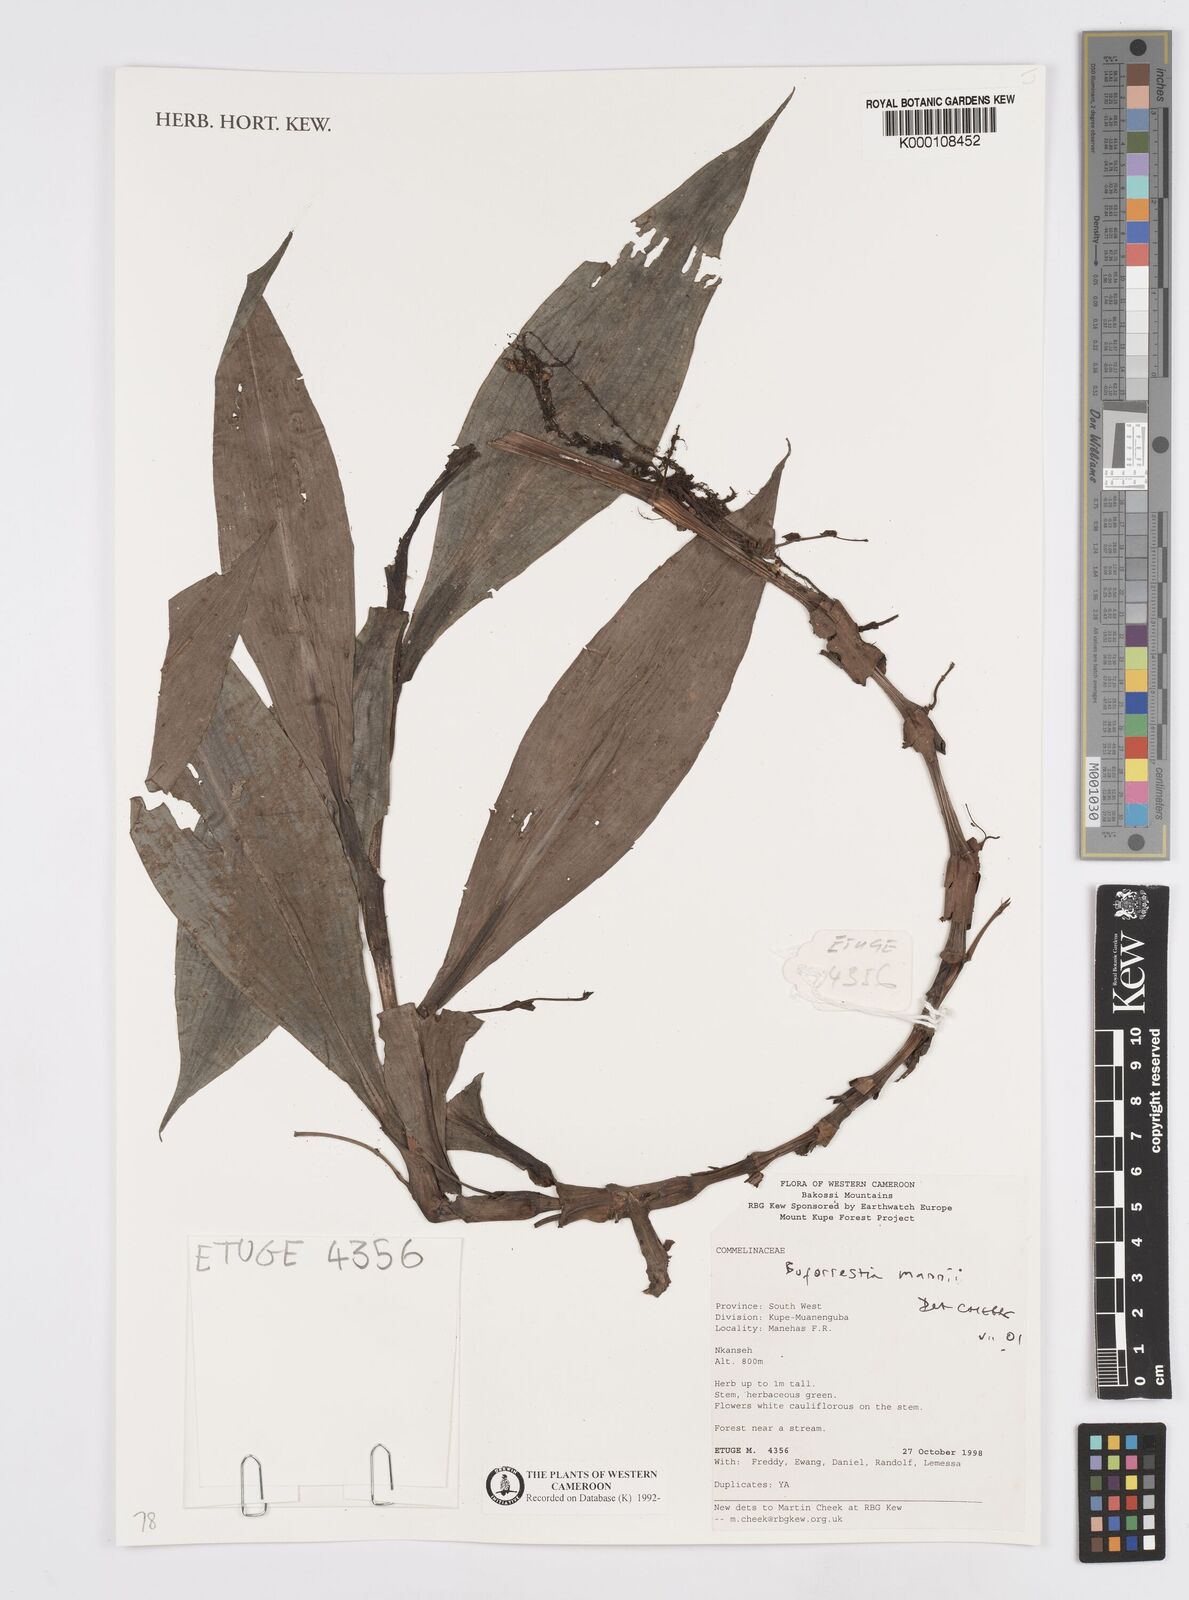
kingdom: Plantae
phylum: Tracheophyta
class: Liliopsida
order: Commelinales
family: Commelinaceae
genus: Buforrestia
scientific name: Buforrestia mannii
